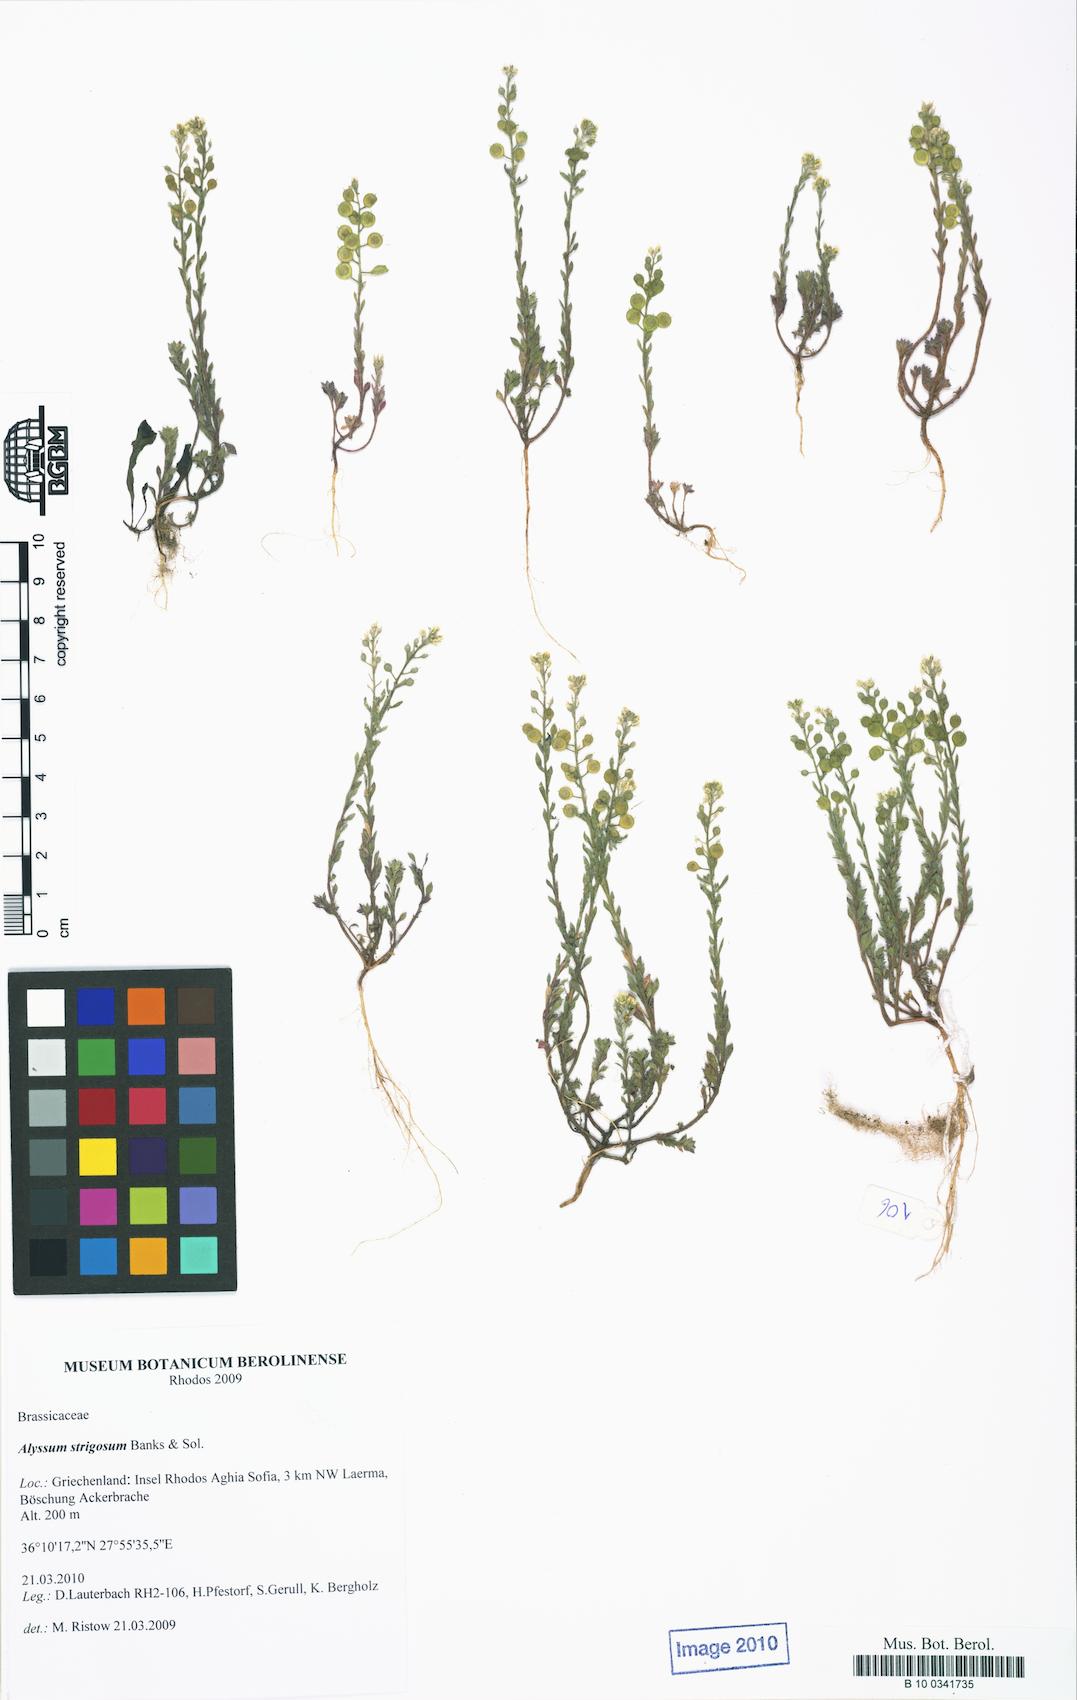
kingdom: Plantae
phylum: Tracheophyta
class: Magnoliopsida
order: Brassicales
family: Brassicaceae
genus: Alyssum
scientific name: Alyssum strigosum
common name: Alyssum
